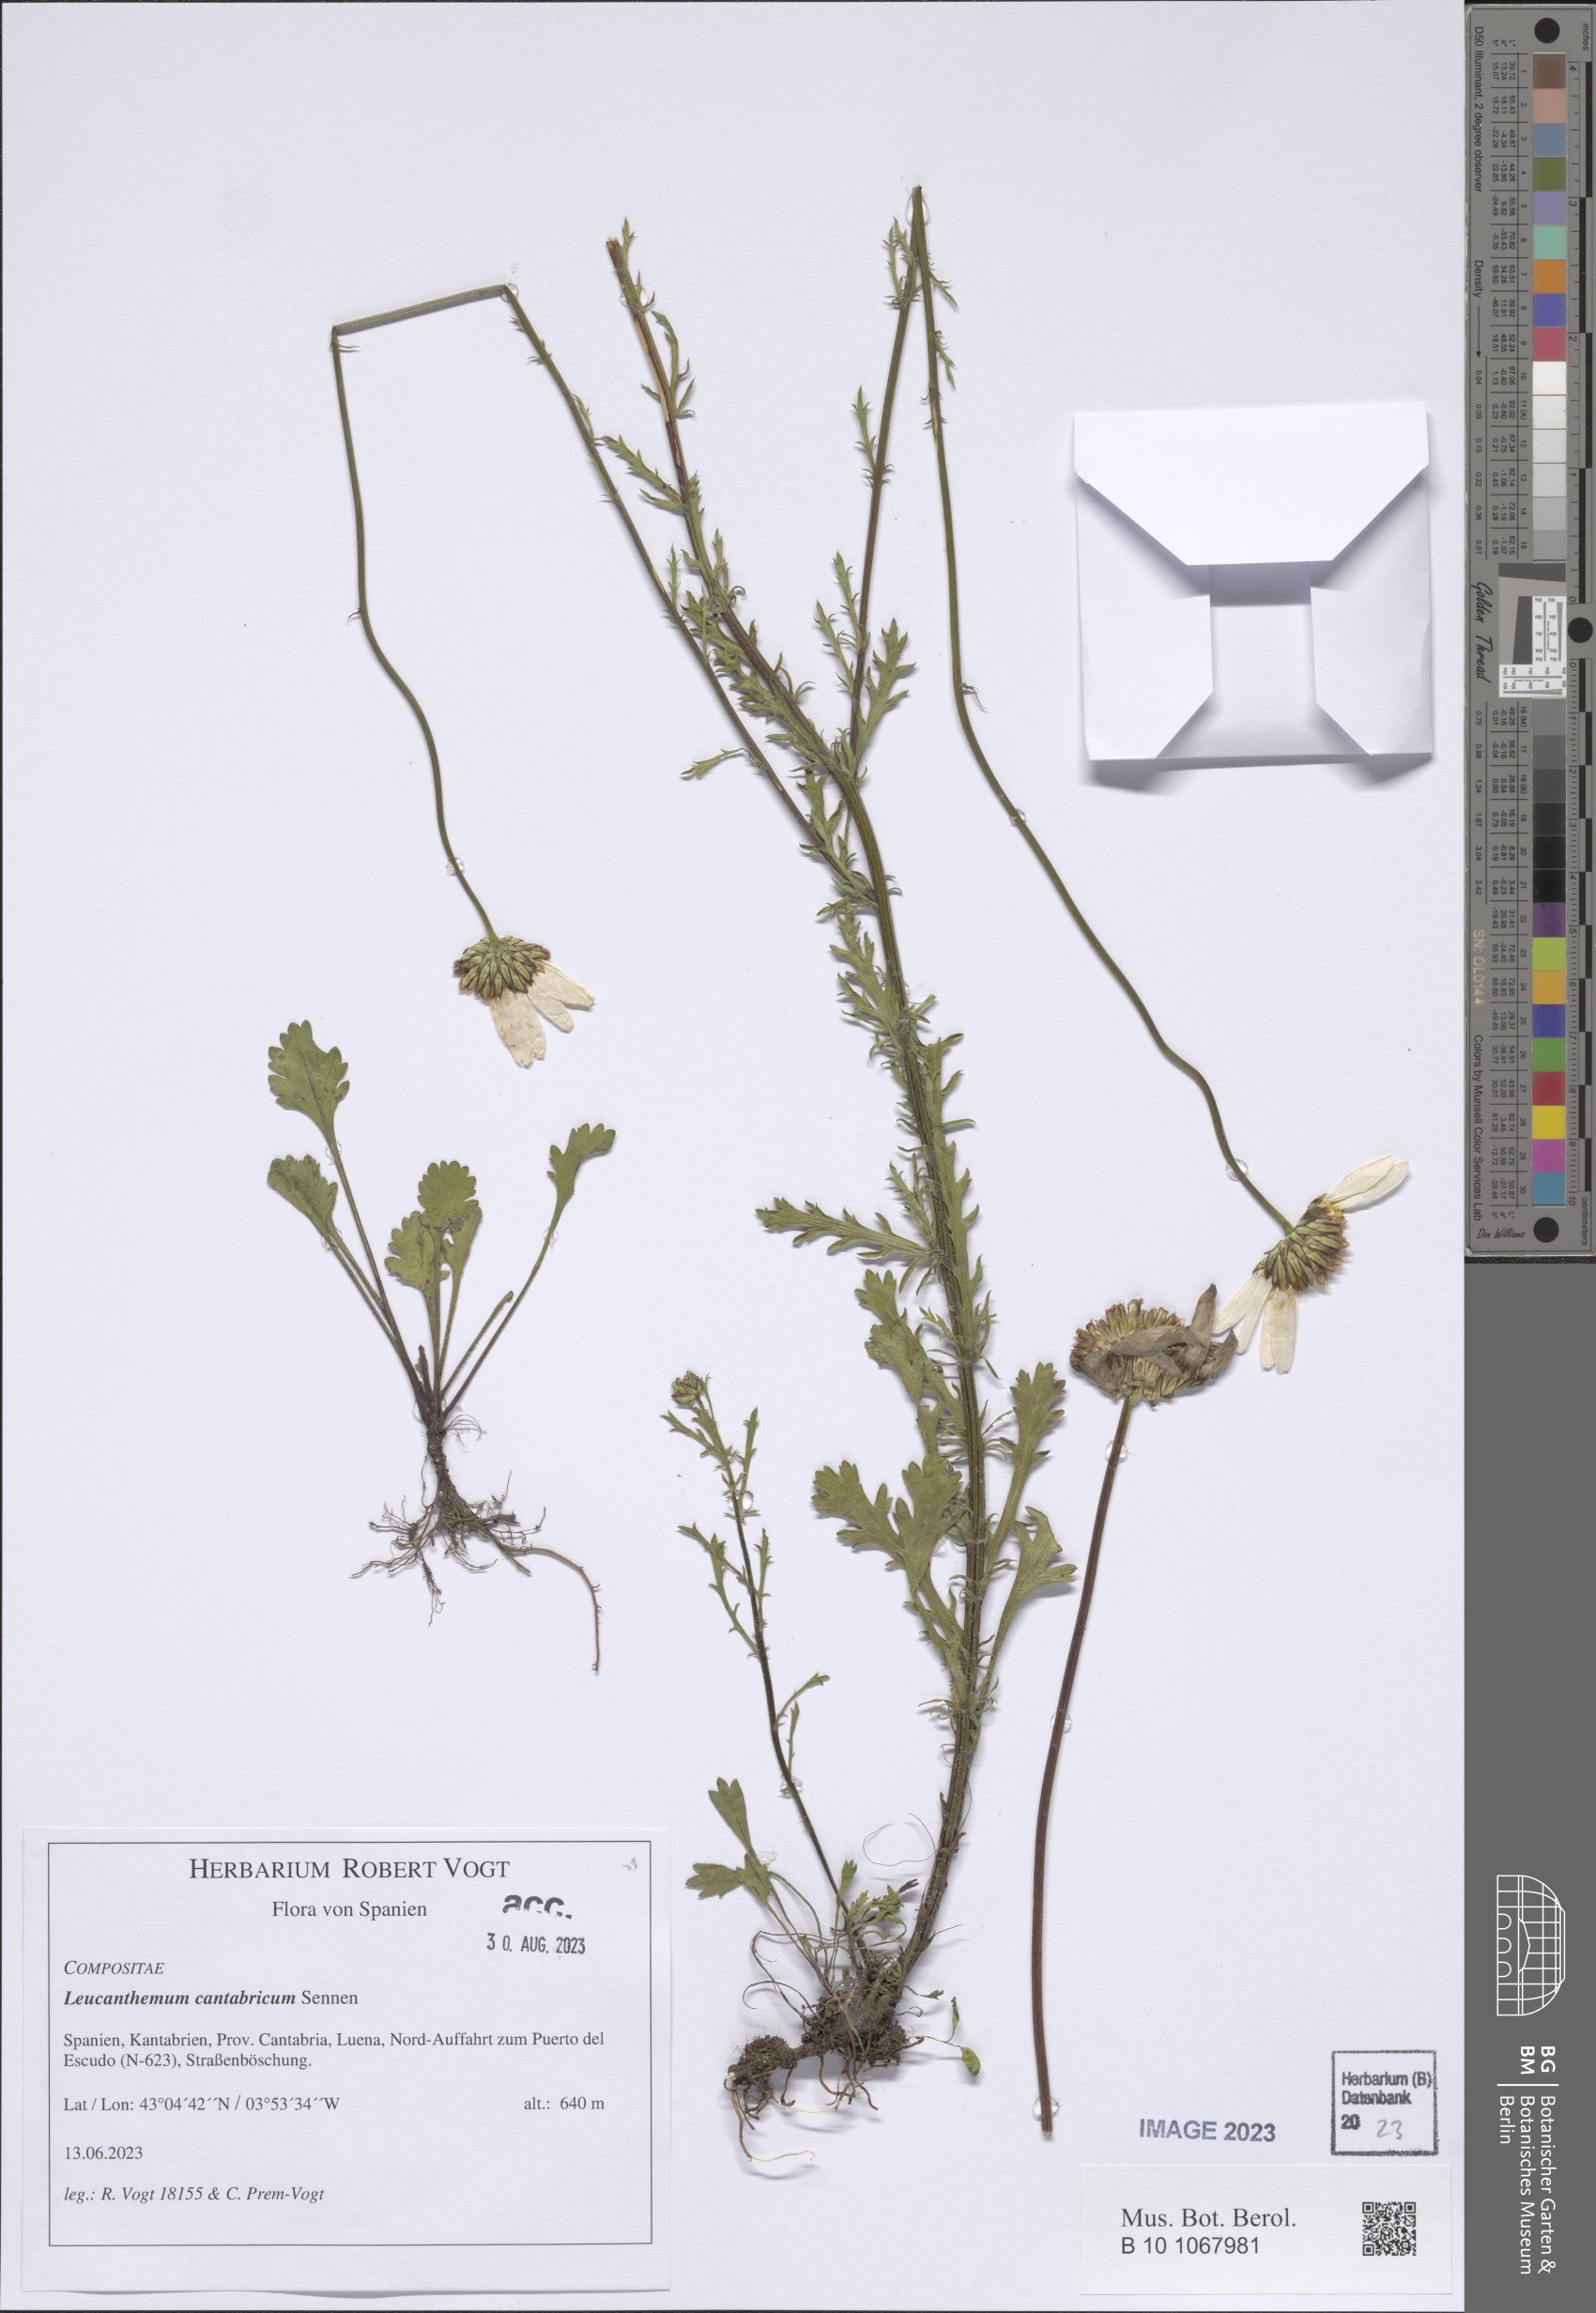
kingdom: Plantae
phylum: Tracheophyta
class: Magnoliopsida
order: Asterales
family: Asteraceae
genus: Leucanthemum
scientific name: Leucanthemum cantabricum
